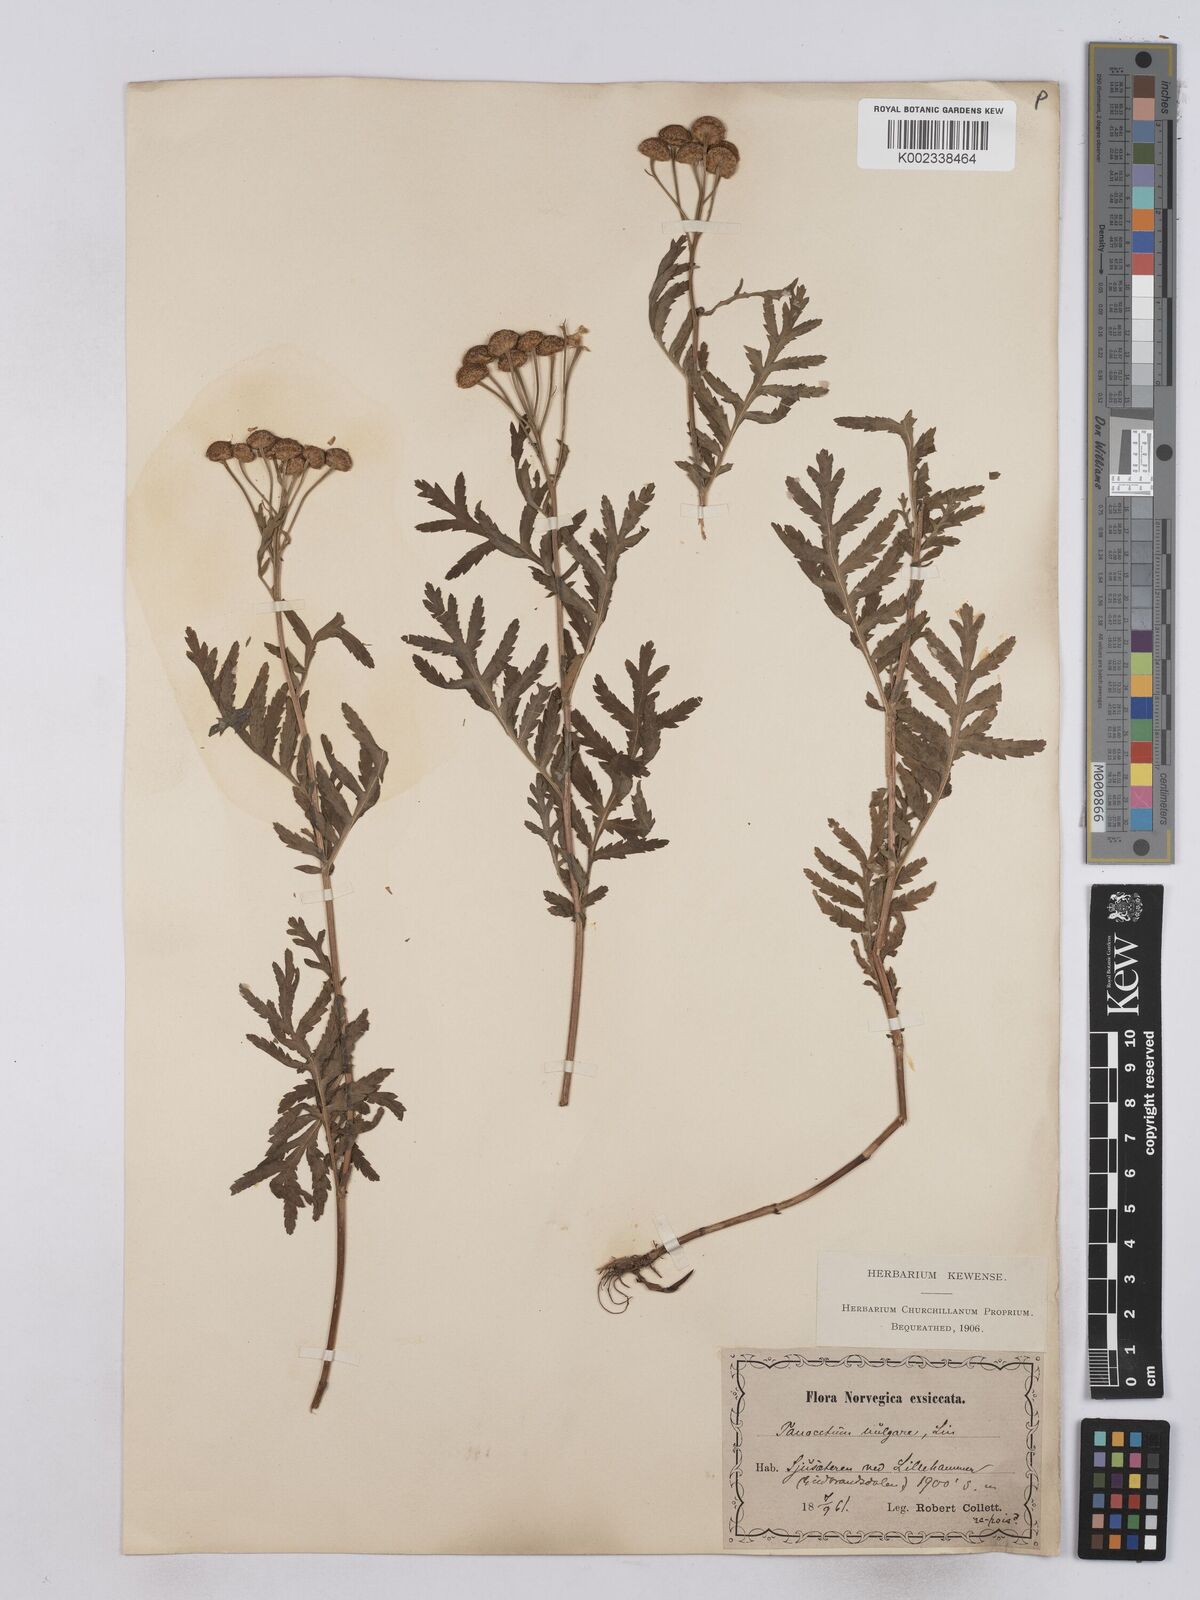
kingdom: Plantae
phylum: Tracheophyta
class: Magnoliopsida
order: Asterales
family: Asteraceae
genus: Tanacetum
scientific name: Tanacetum vulgare
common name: Common tansy
